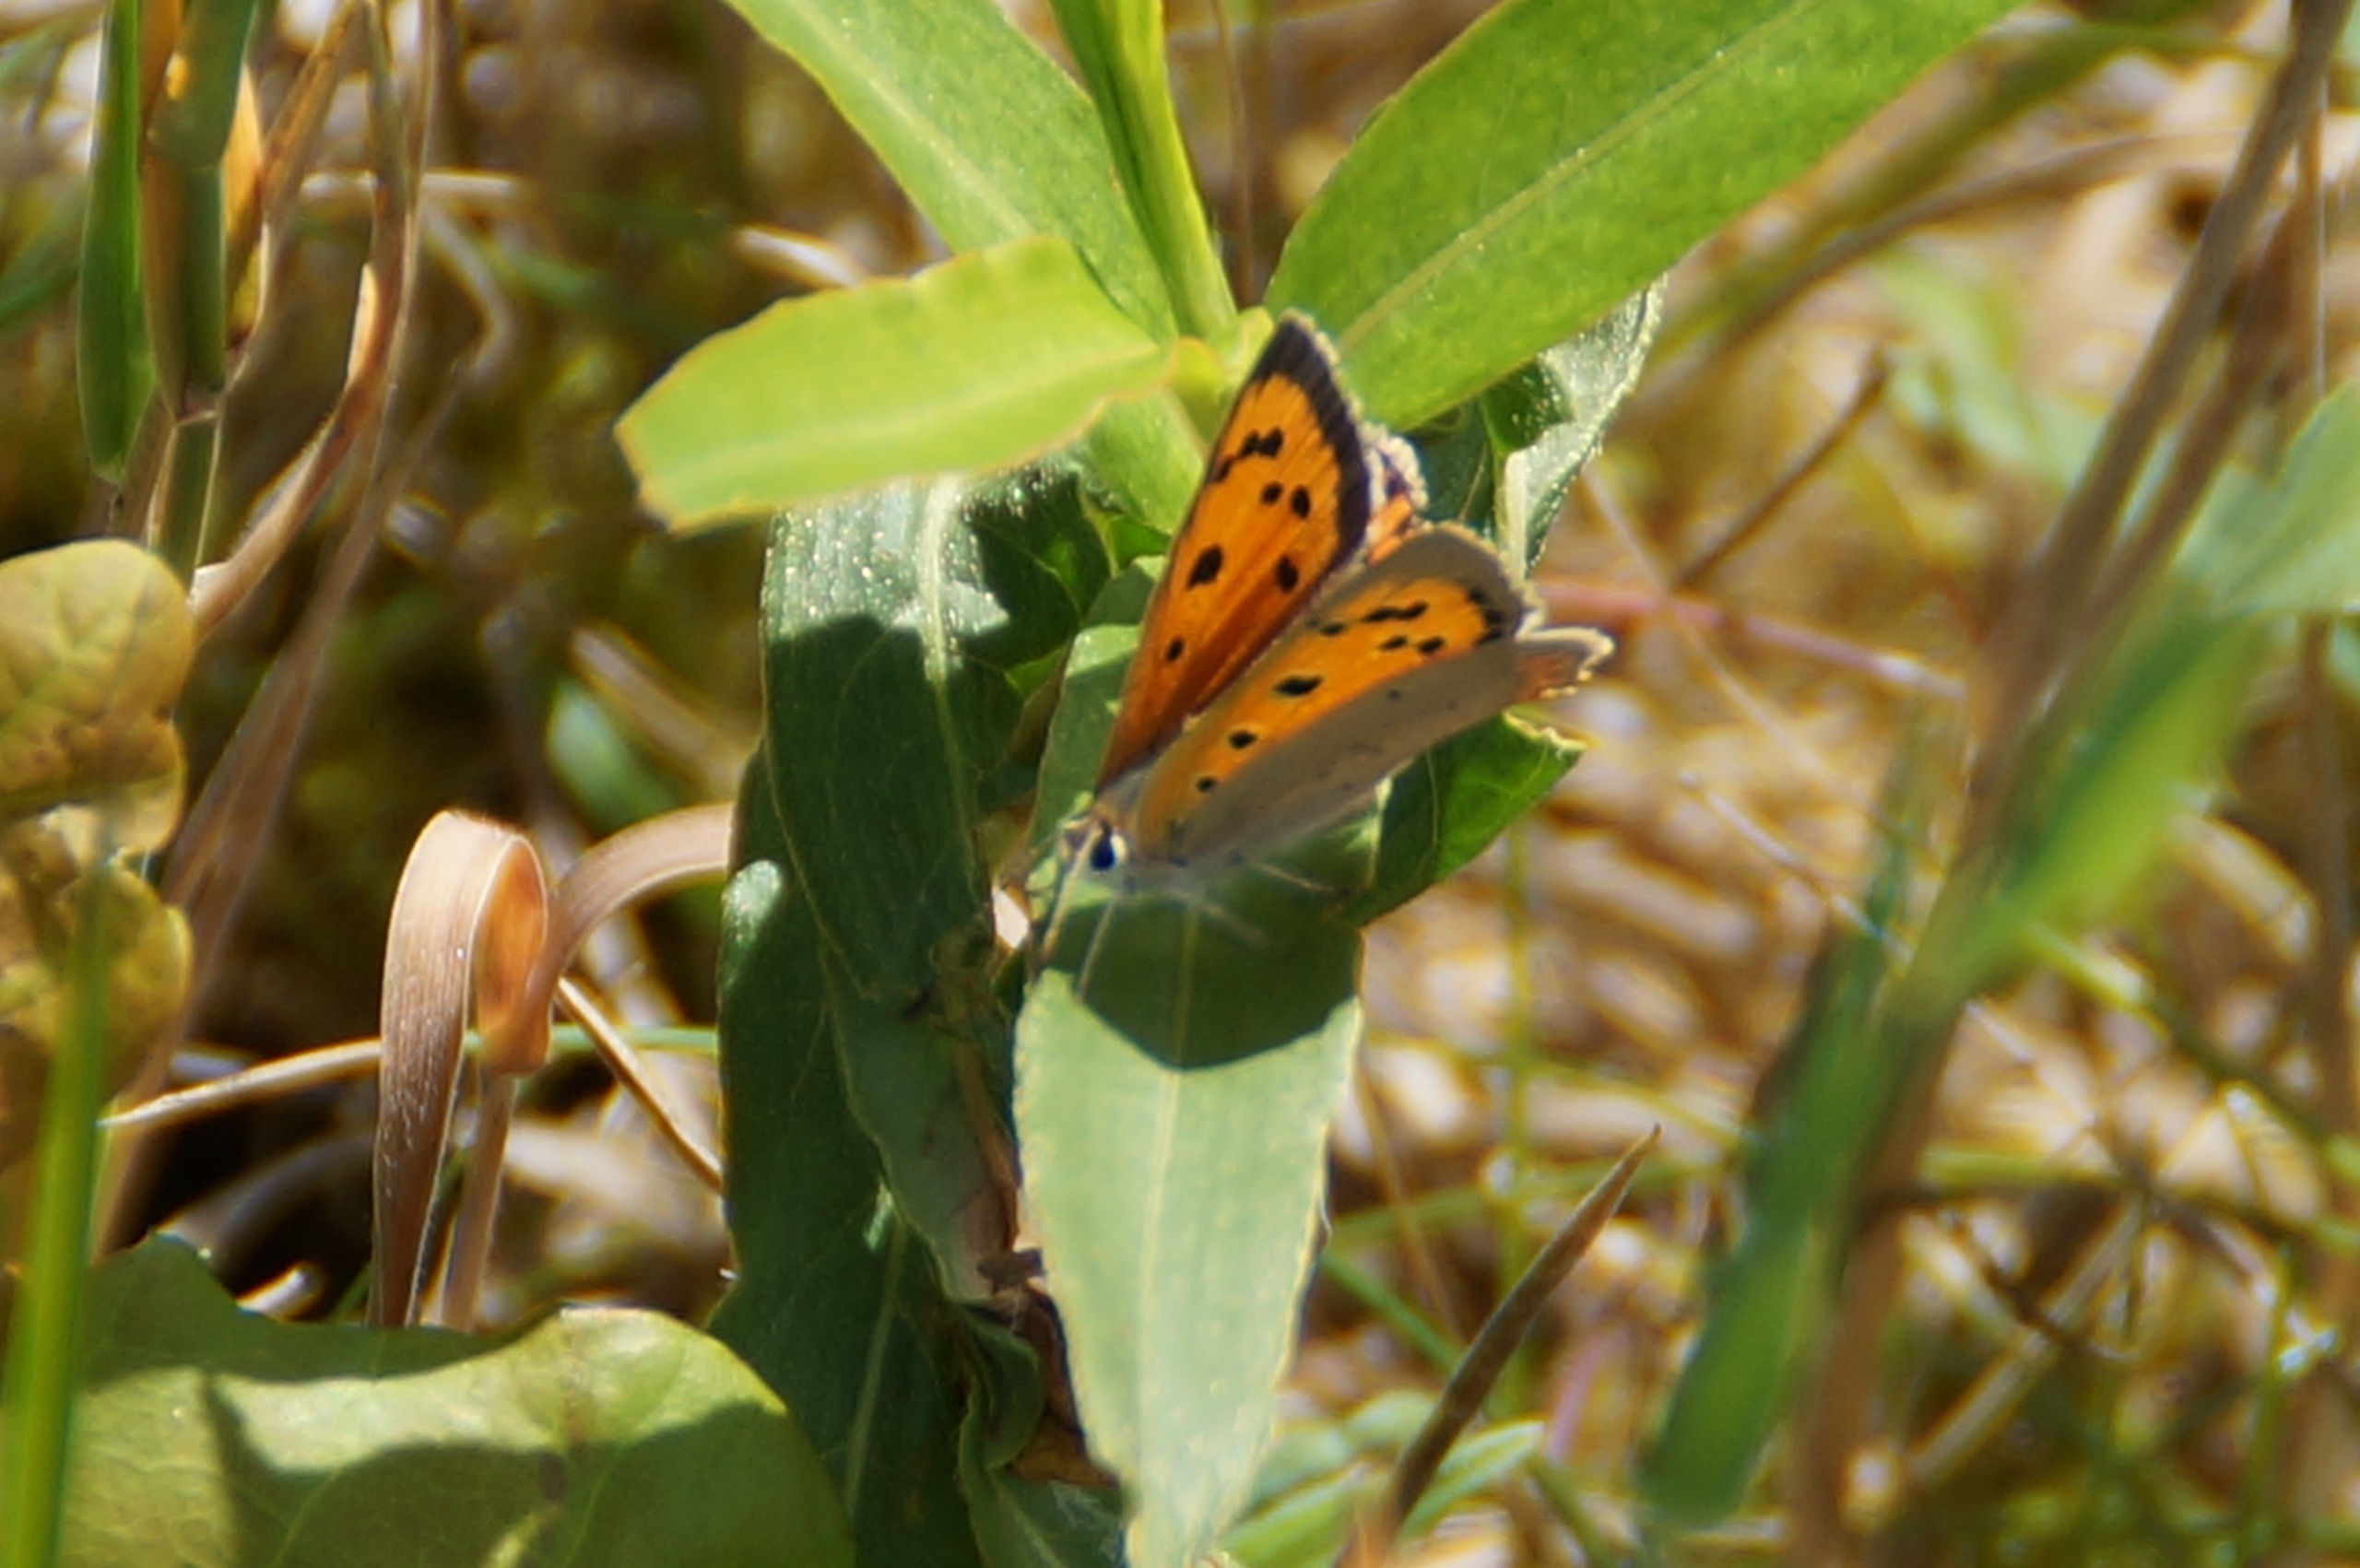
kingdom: Animalia
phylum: Arthropoda
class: Insecta
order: Lepidoptera
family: Lycaenidae
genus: Lycaena
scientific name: Lycaena phlaeas
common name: Lille ildfugl
